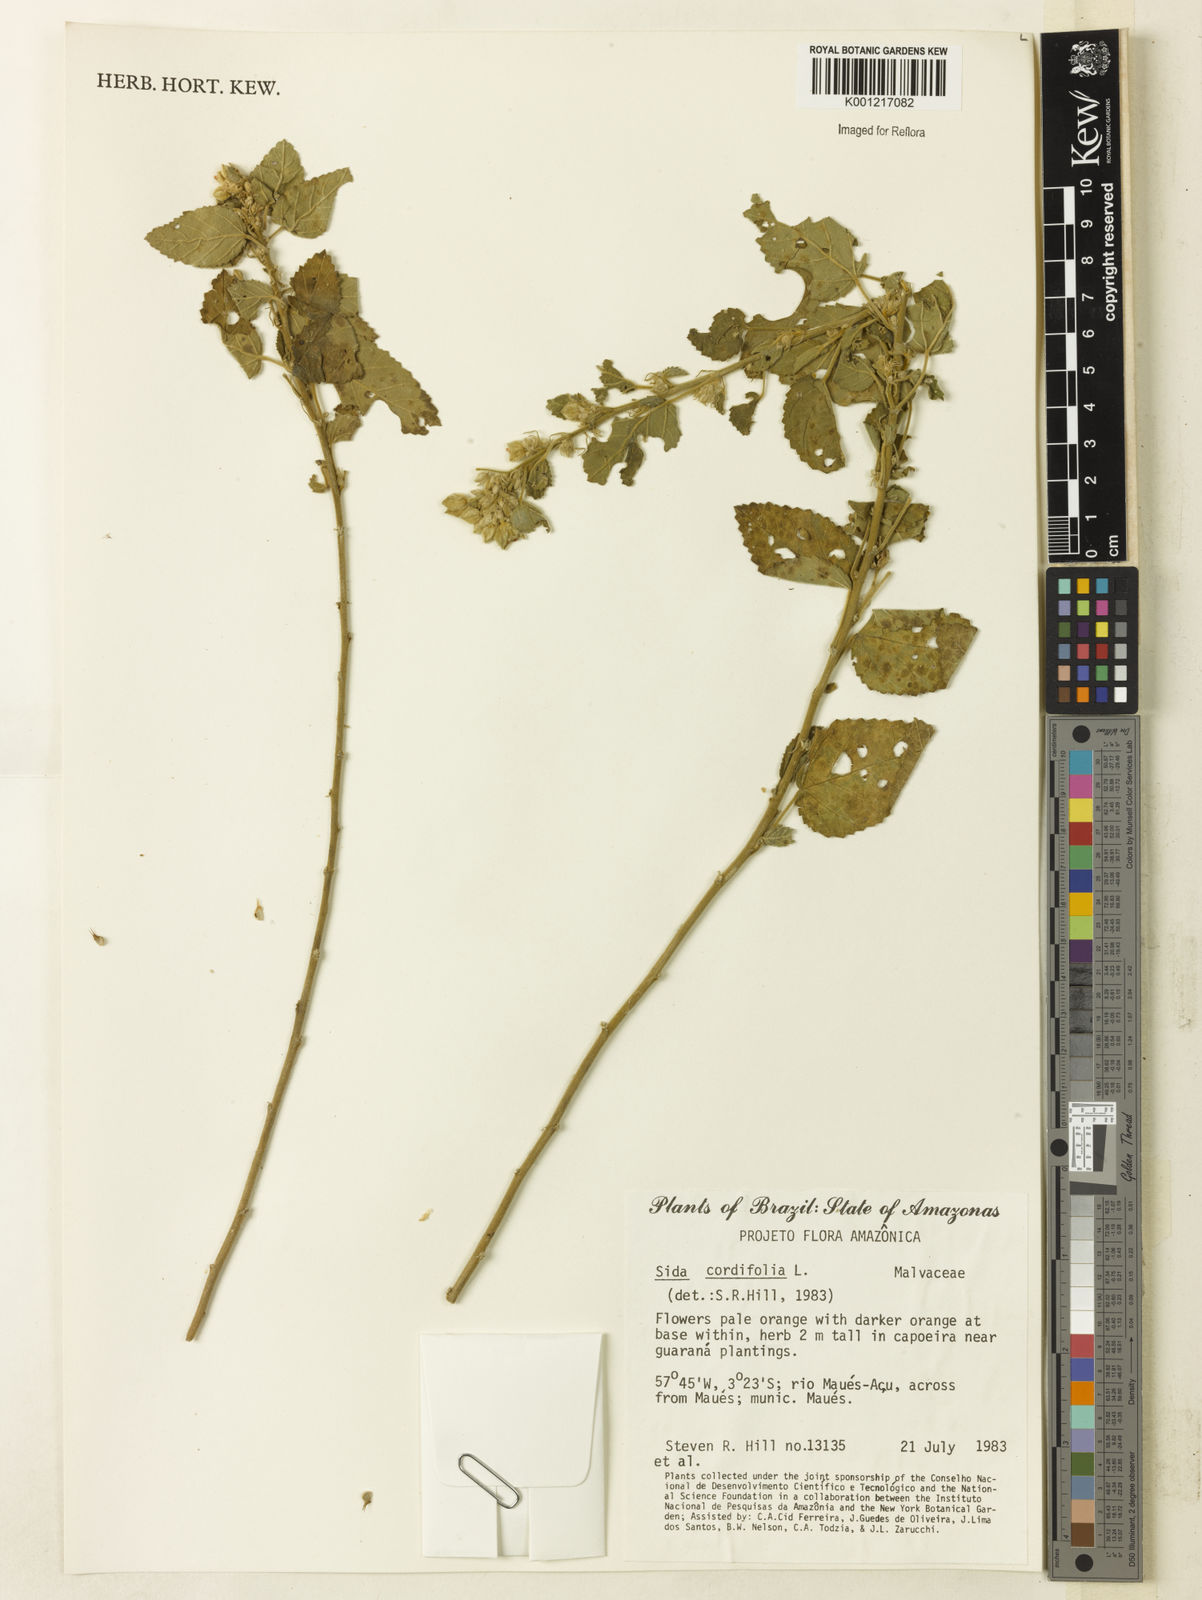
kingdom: Plantae
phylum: Tracheophyta
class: Magnoliopsida
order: Malvales
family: Malvaceae
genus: Sida
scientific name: Sida cordifolia
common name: Ilima
